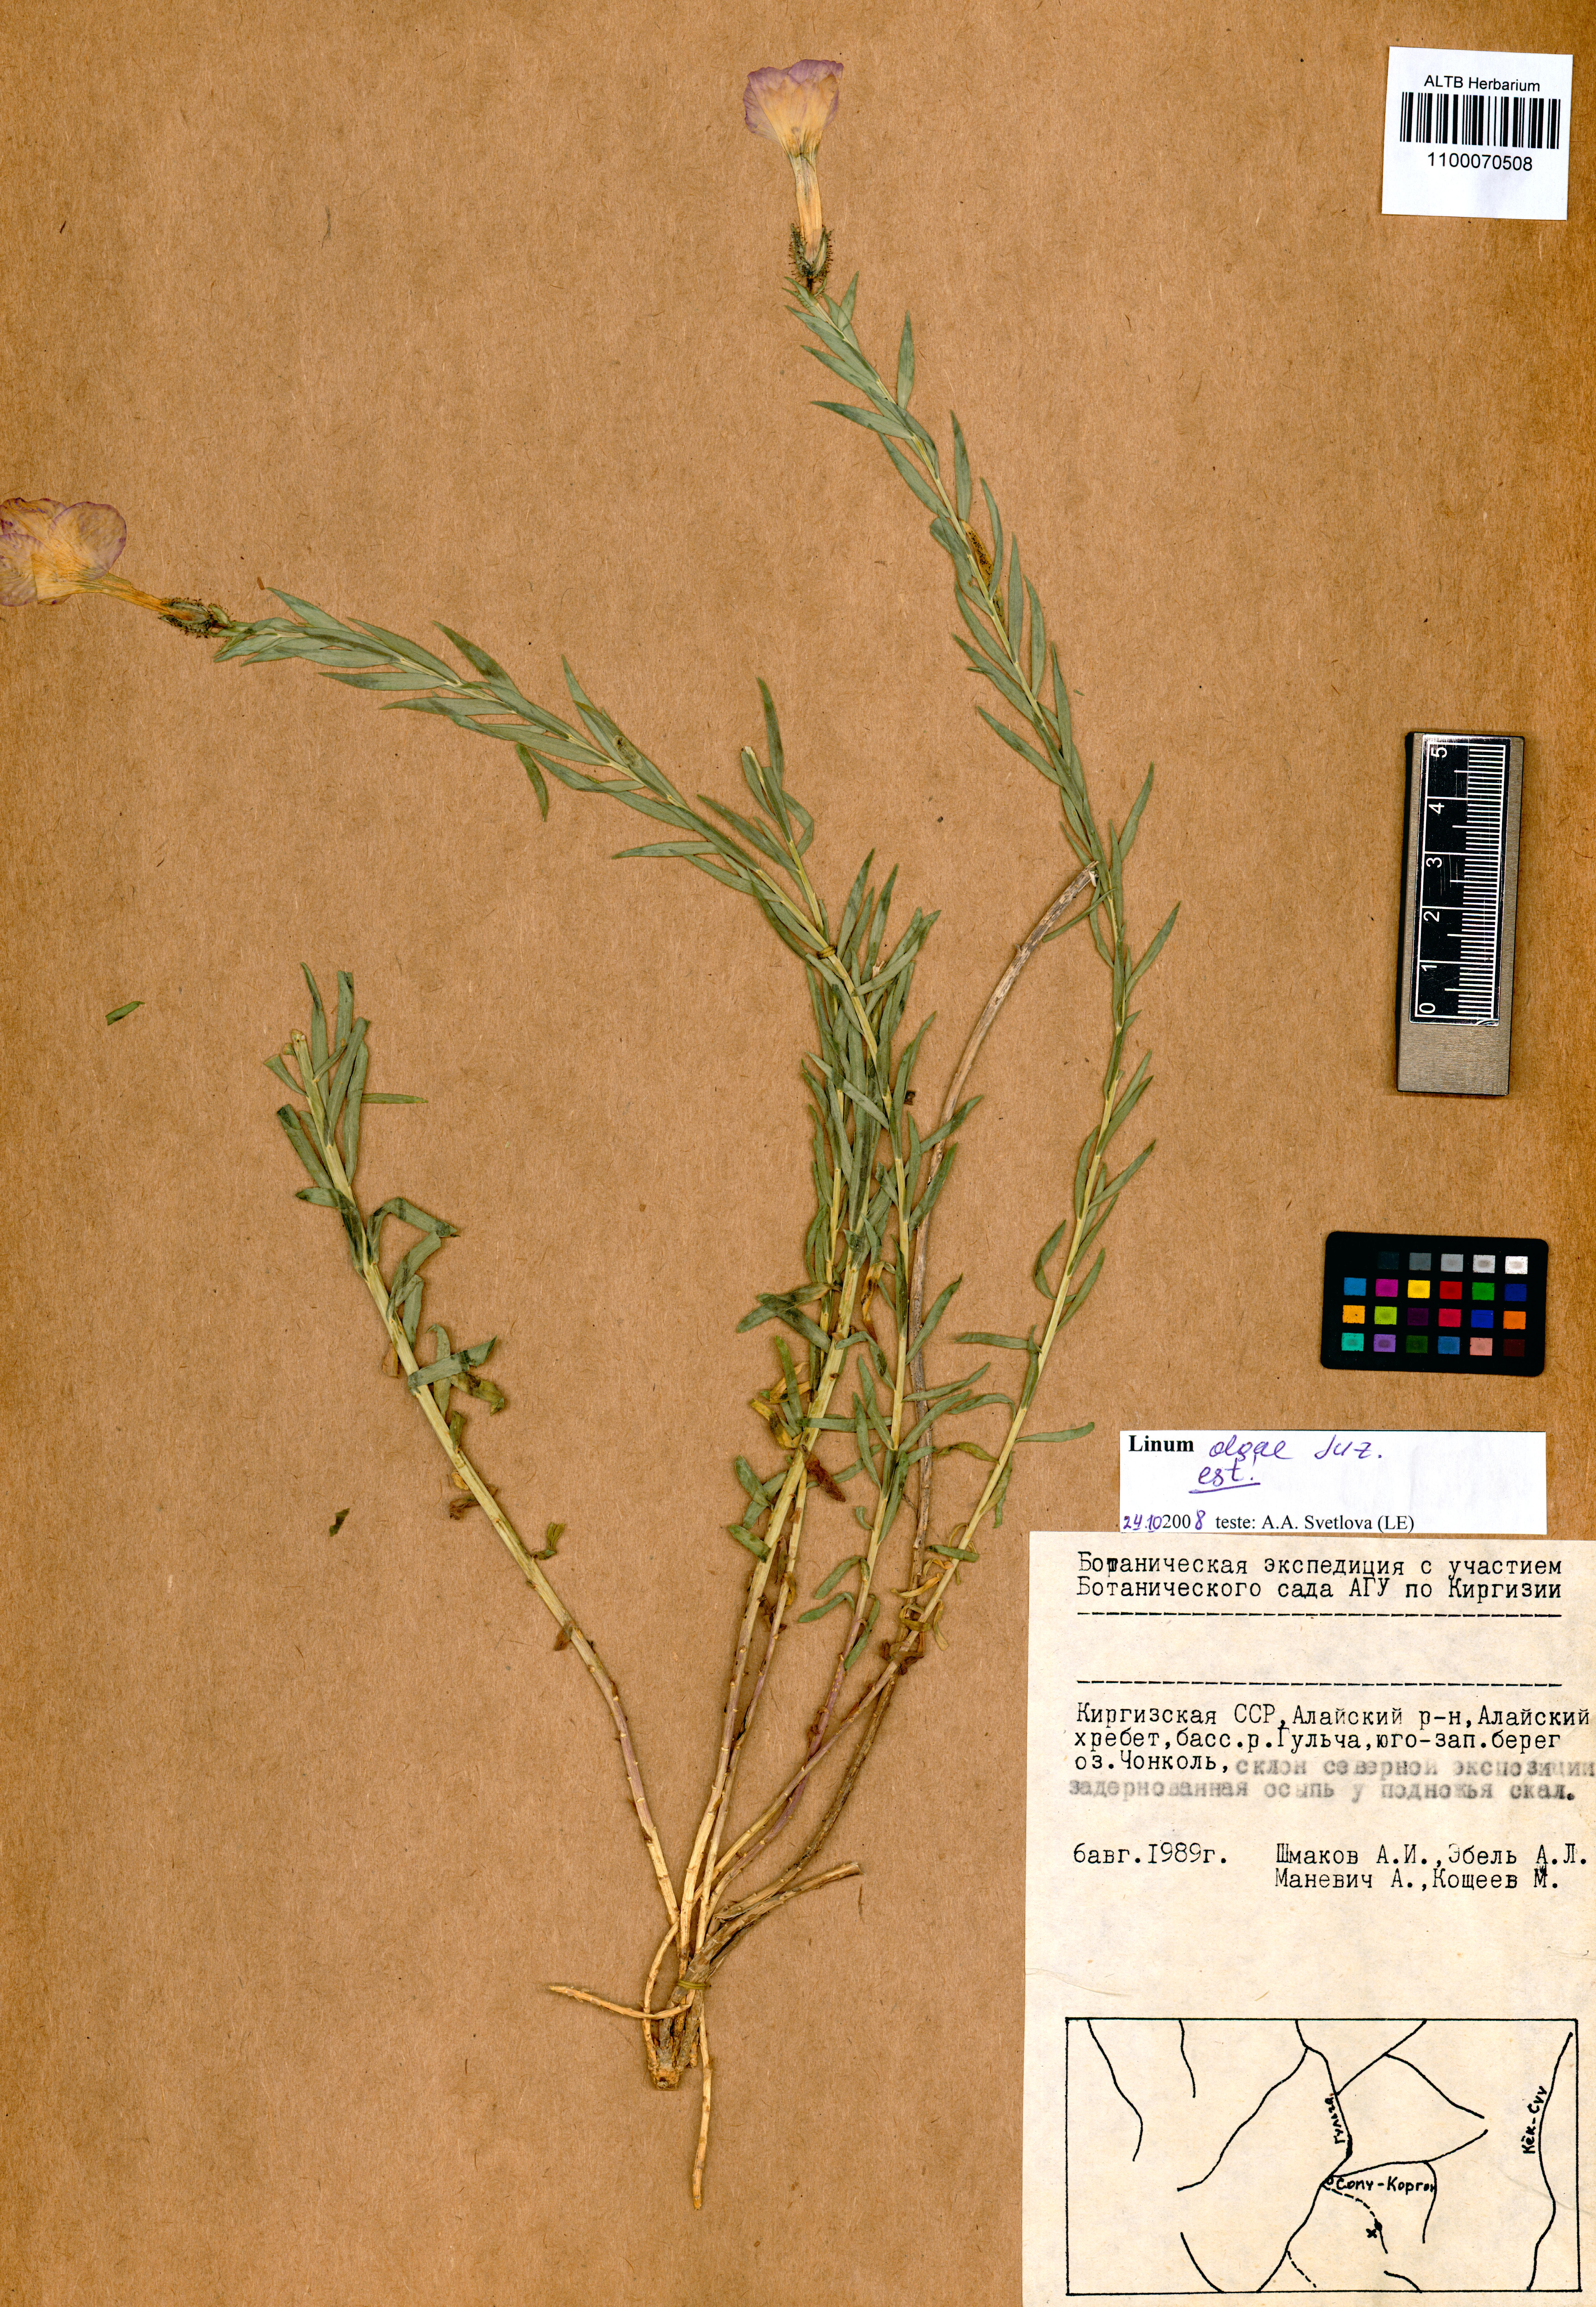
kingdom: Plantae
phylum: Tracheophyta
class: Magnoliopsida
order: Malpighiales
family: Linaceae
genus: Linum
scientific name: Linum olgae
